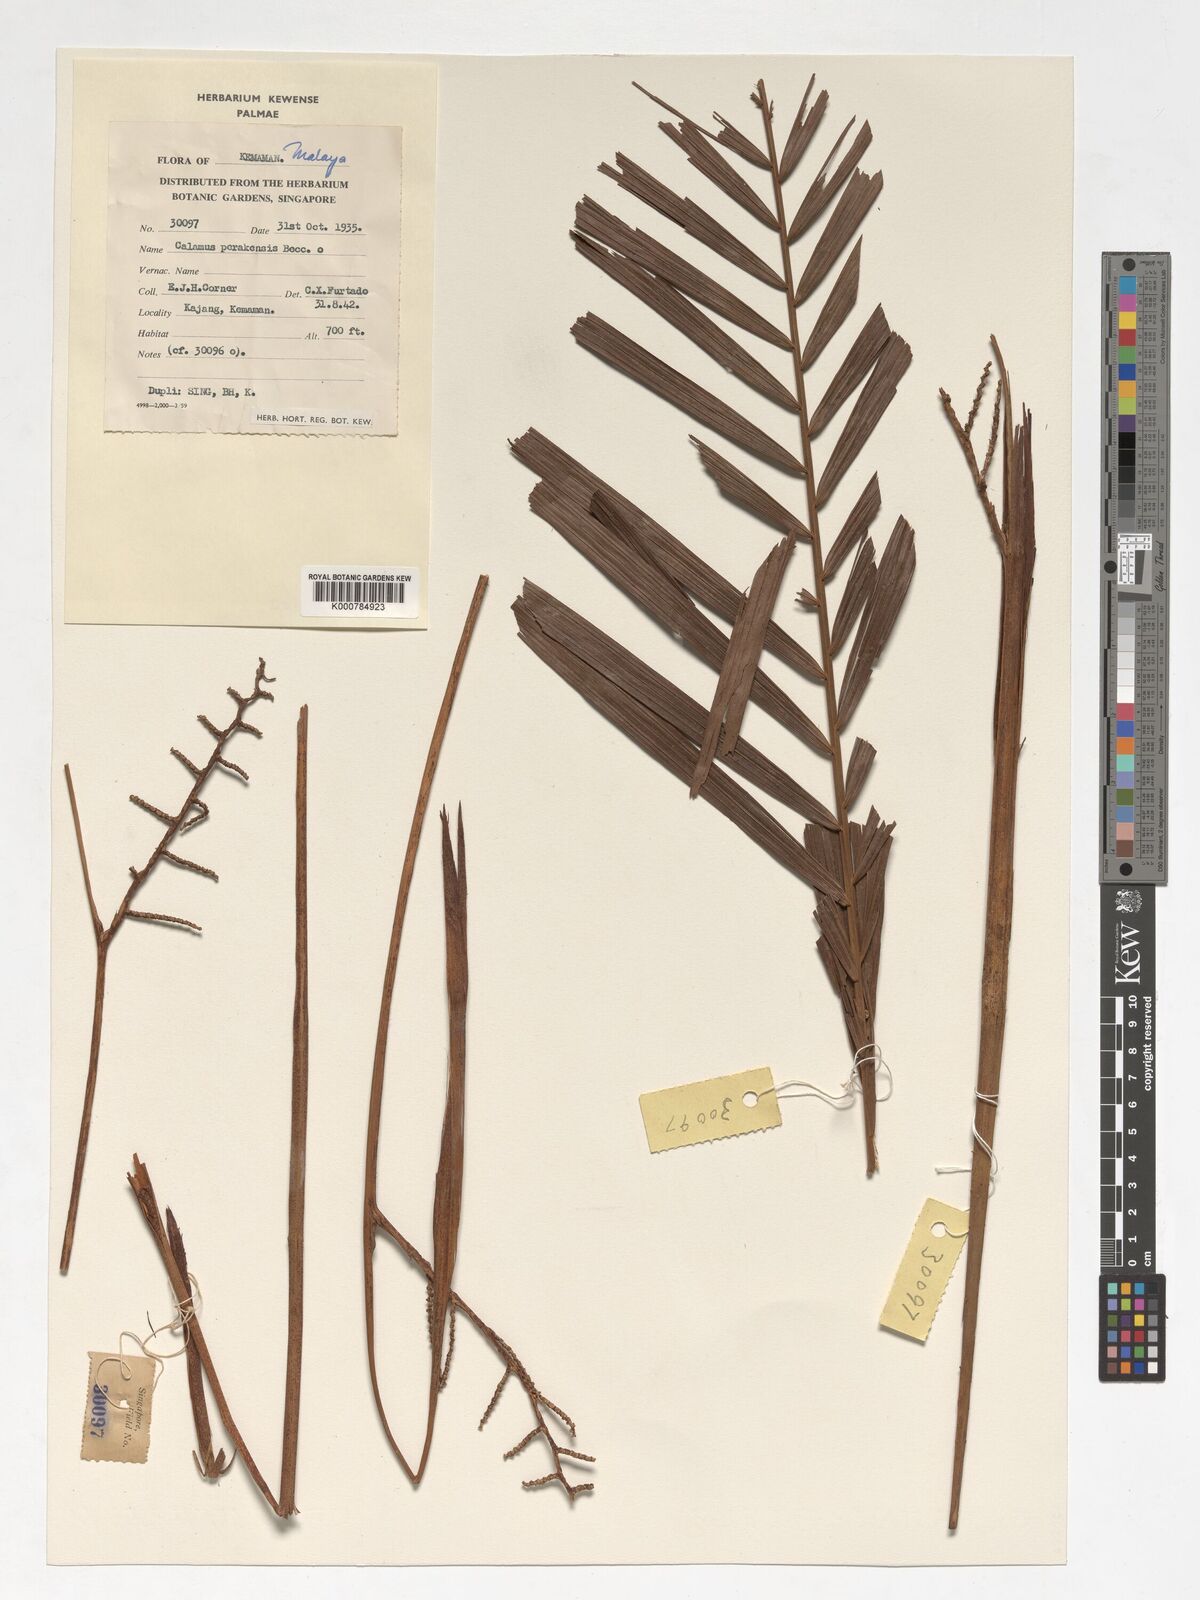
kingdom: Plantae
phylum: Tracheophyta
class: Liliopsida
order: Arecales
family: Arecaceae
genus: Calamus
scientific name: Calamus perakensis
